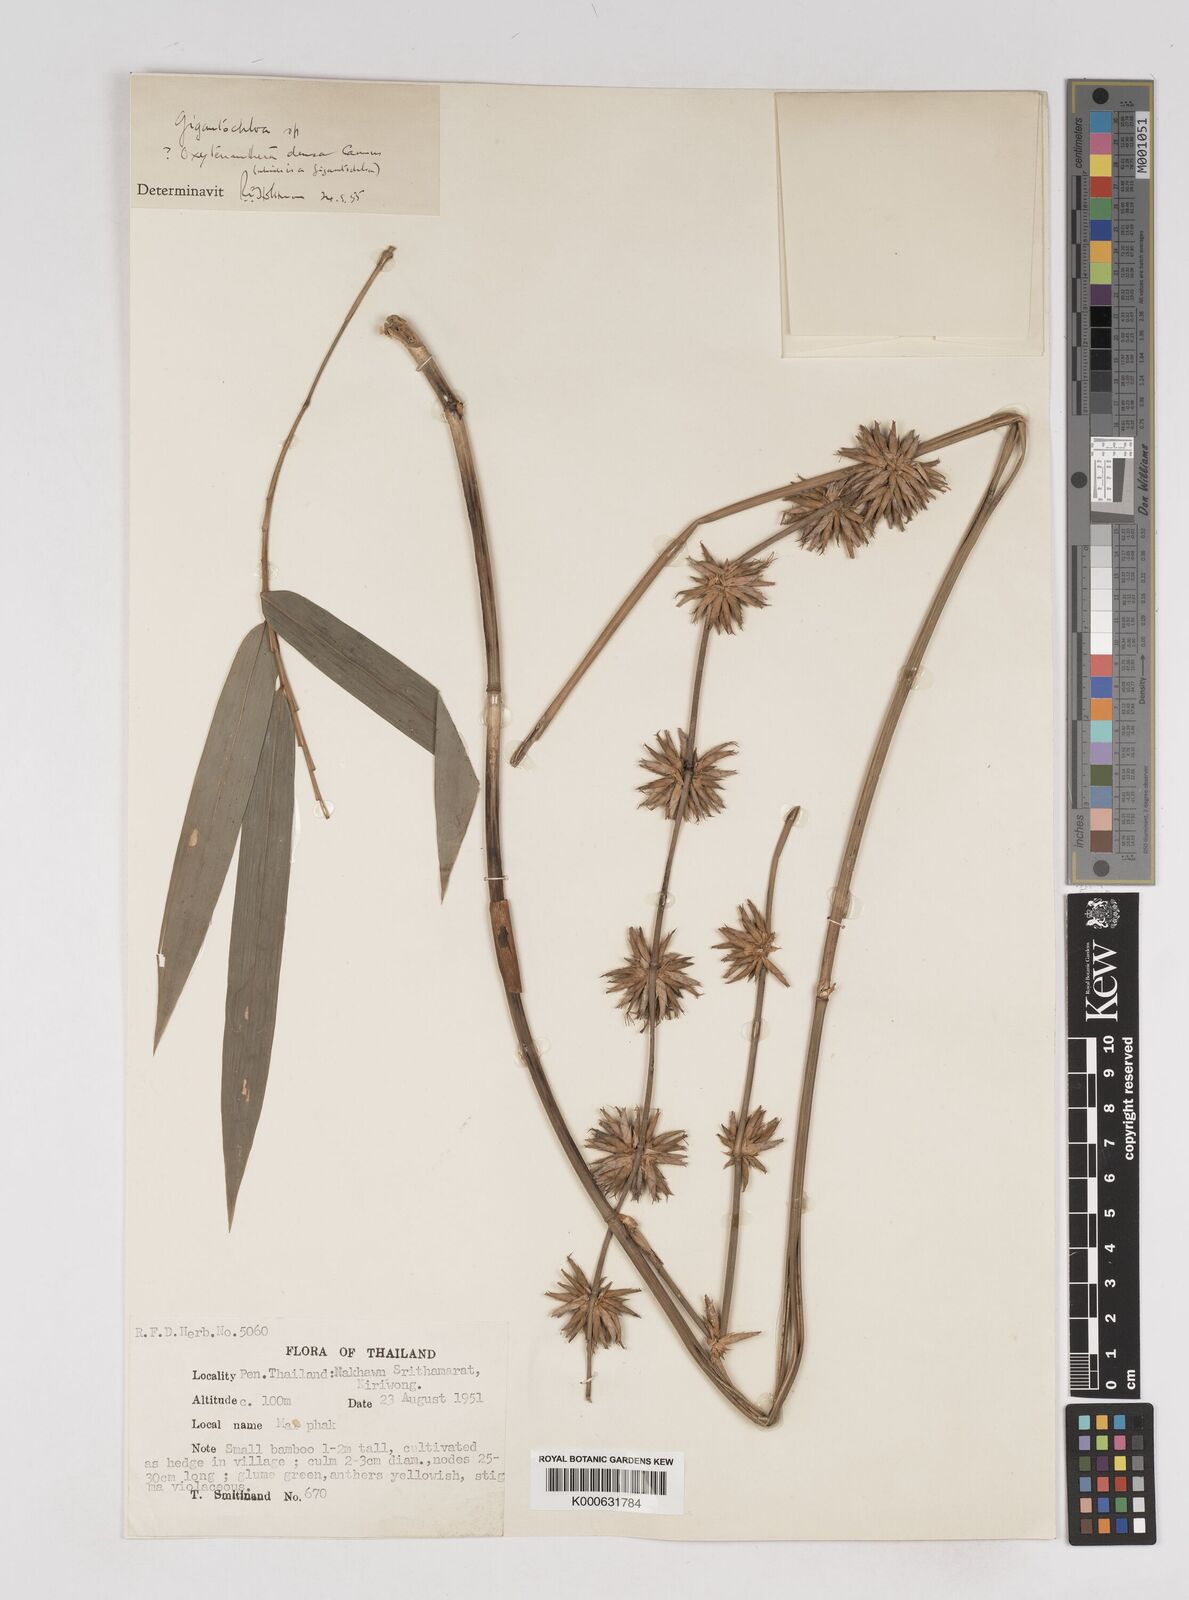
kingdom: Plantae
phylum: Tracheophyta
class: Liliopsida
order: Poales
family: Poaceae
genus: Gigantochloa
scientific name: Gigantochloa
